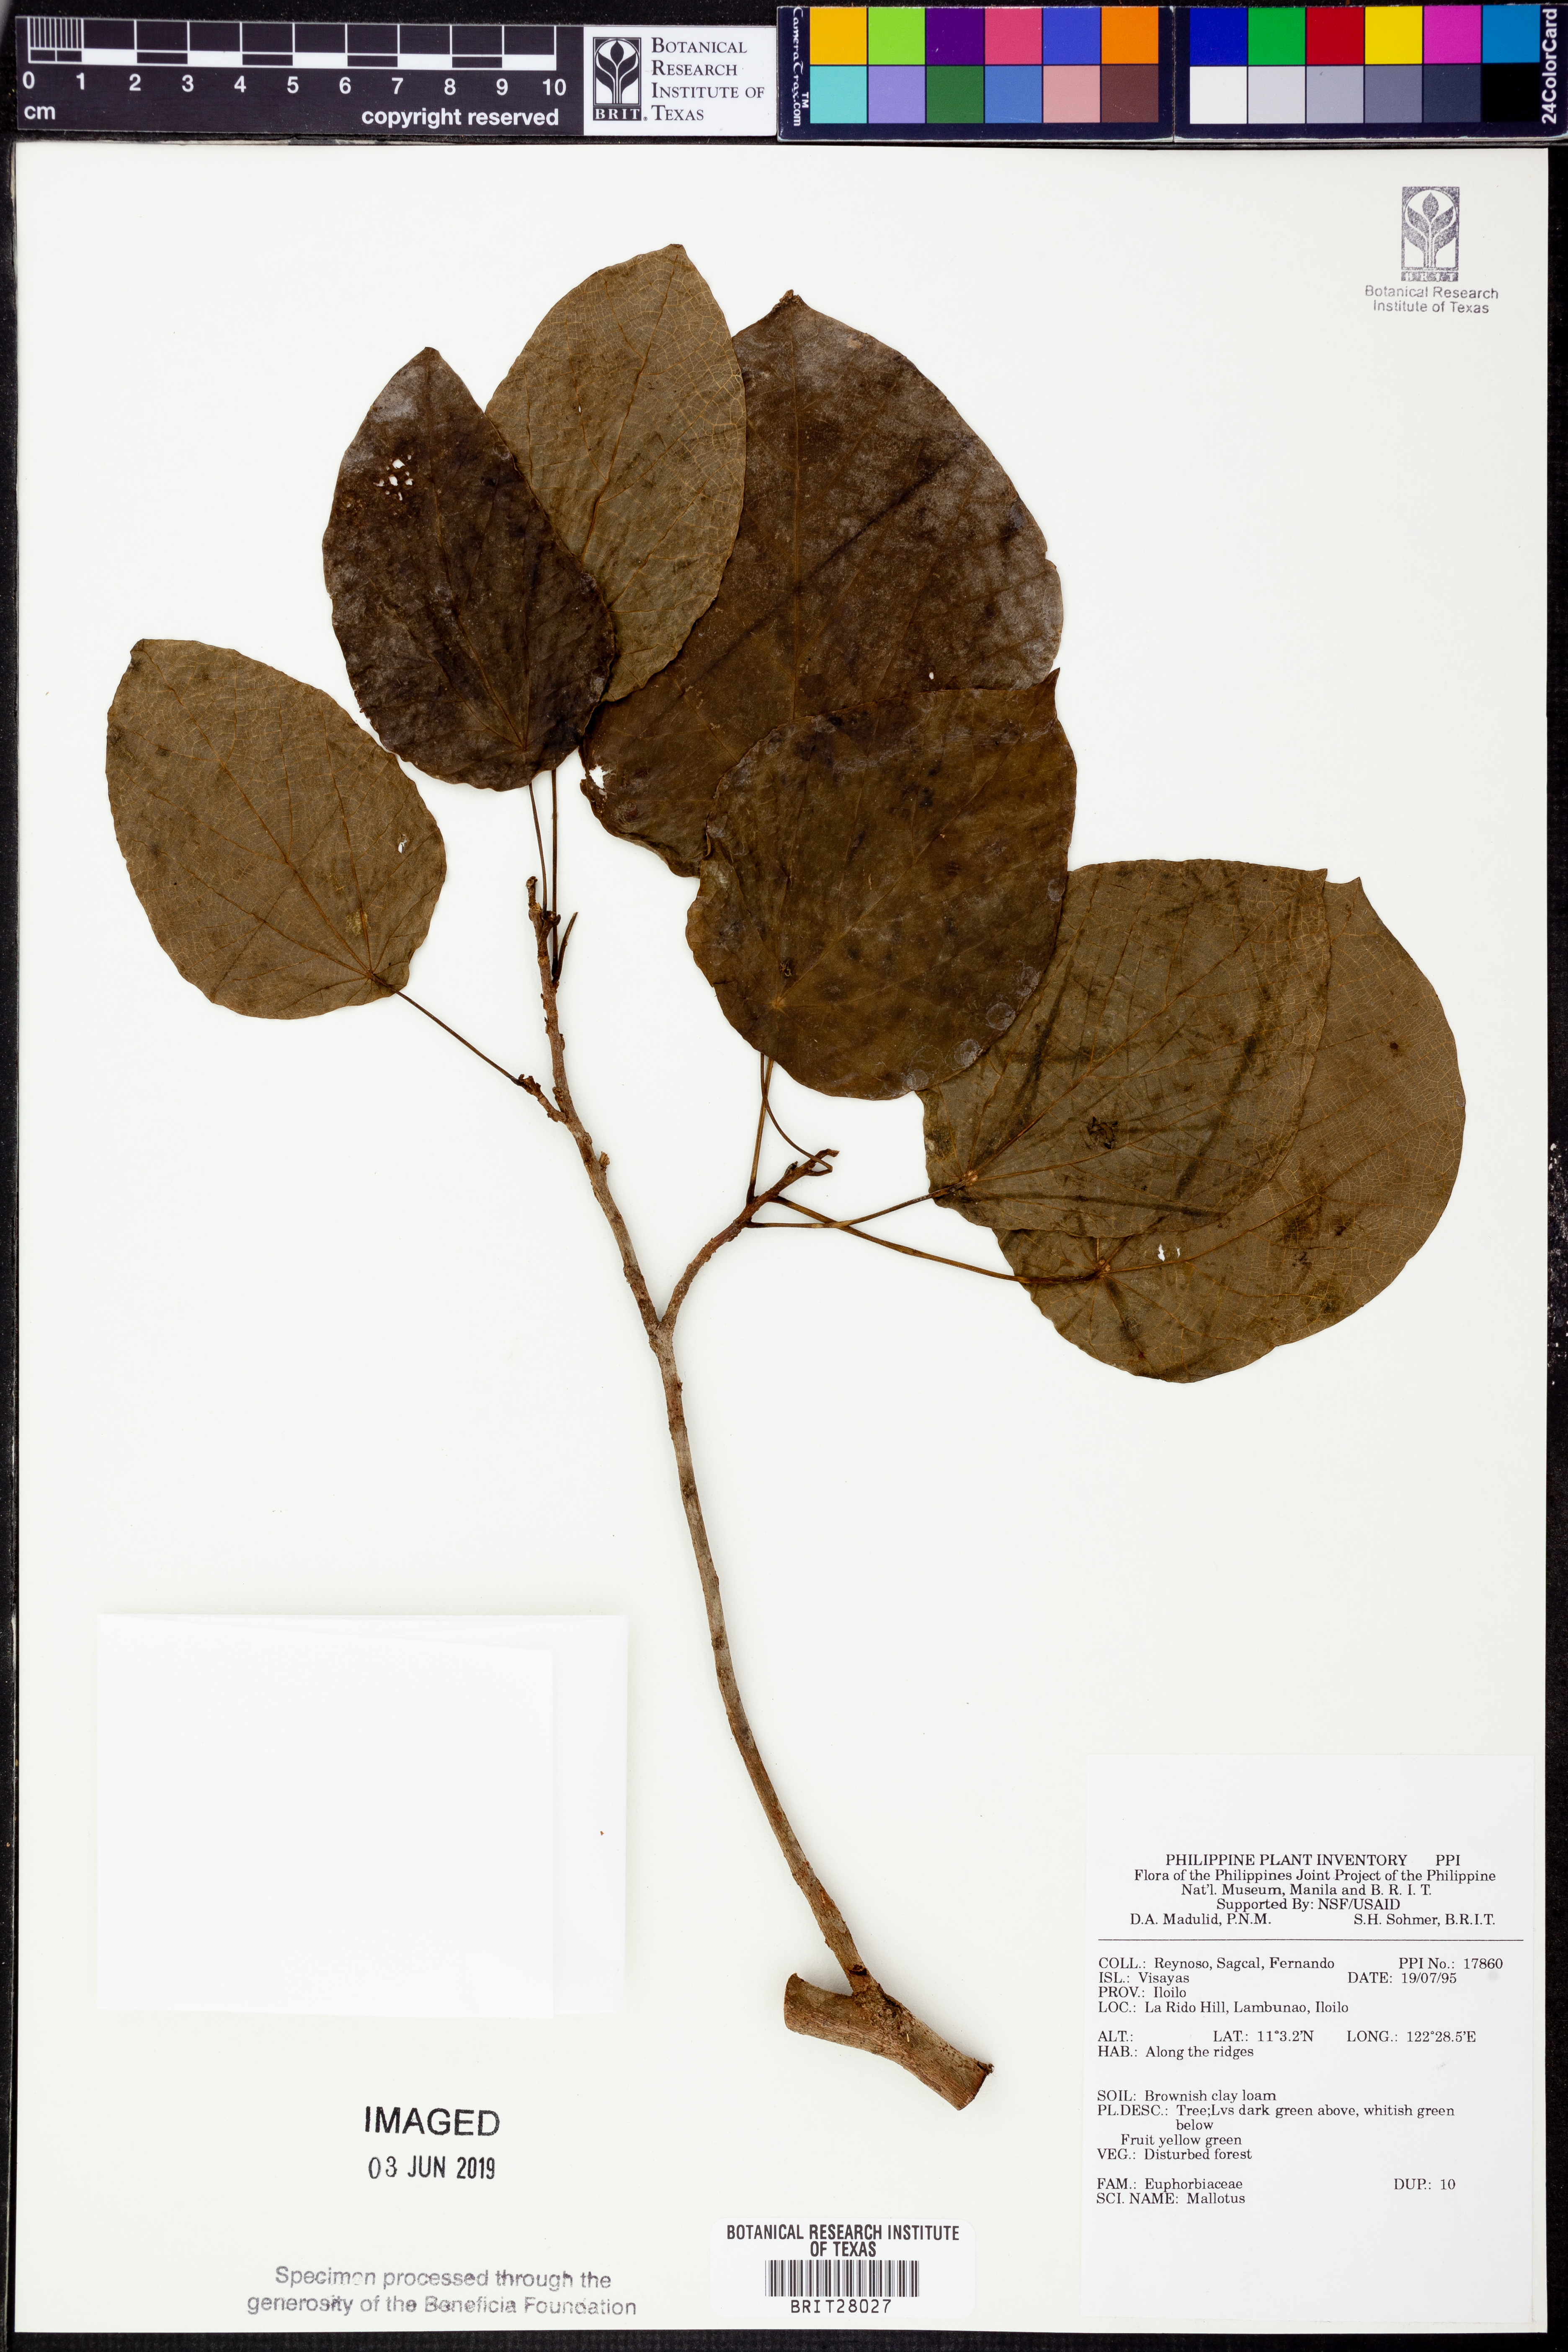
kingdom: Plantae
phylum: Tracheophyta
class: Magnoliopsida
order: Malpighiales
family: Euphorbiaceae
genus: Mallotus
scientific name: Mallotus
